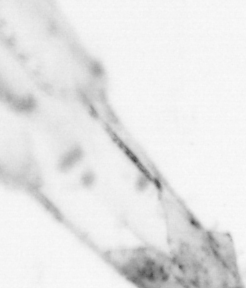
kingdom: Animalia
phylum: Chaetognatha
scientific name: Chaetognatha
